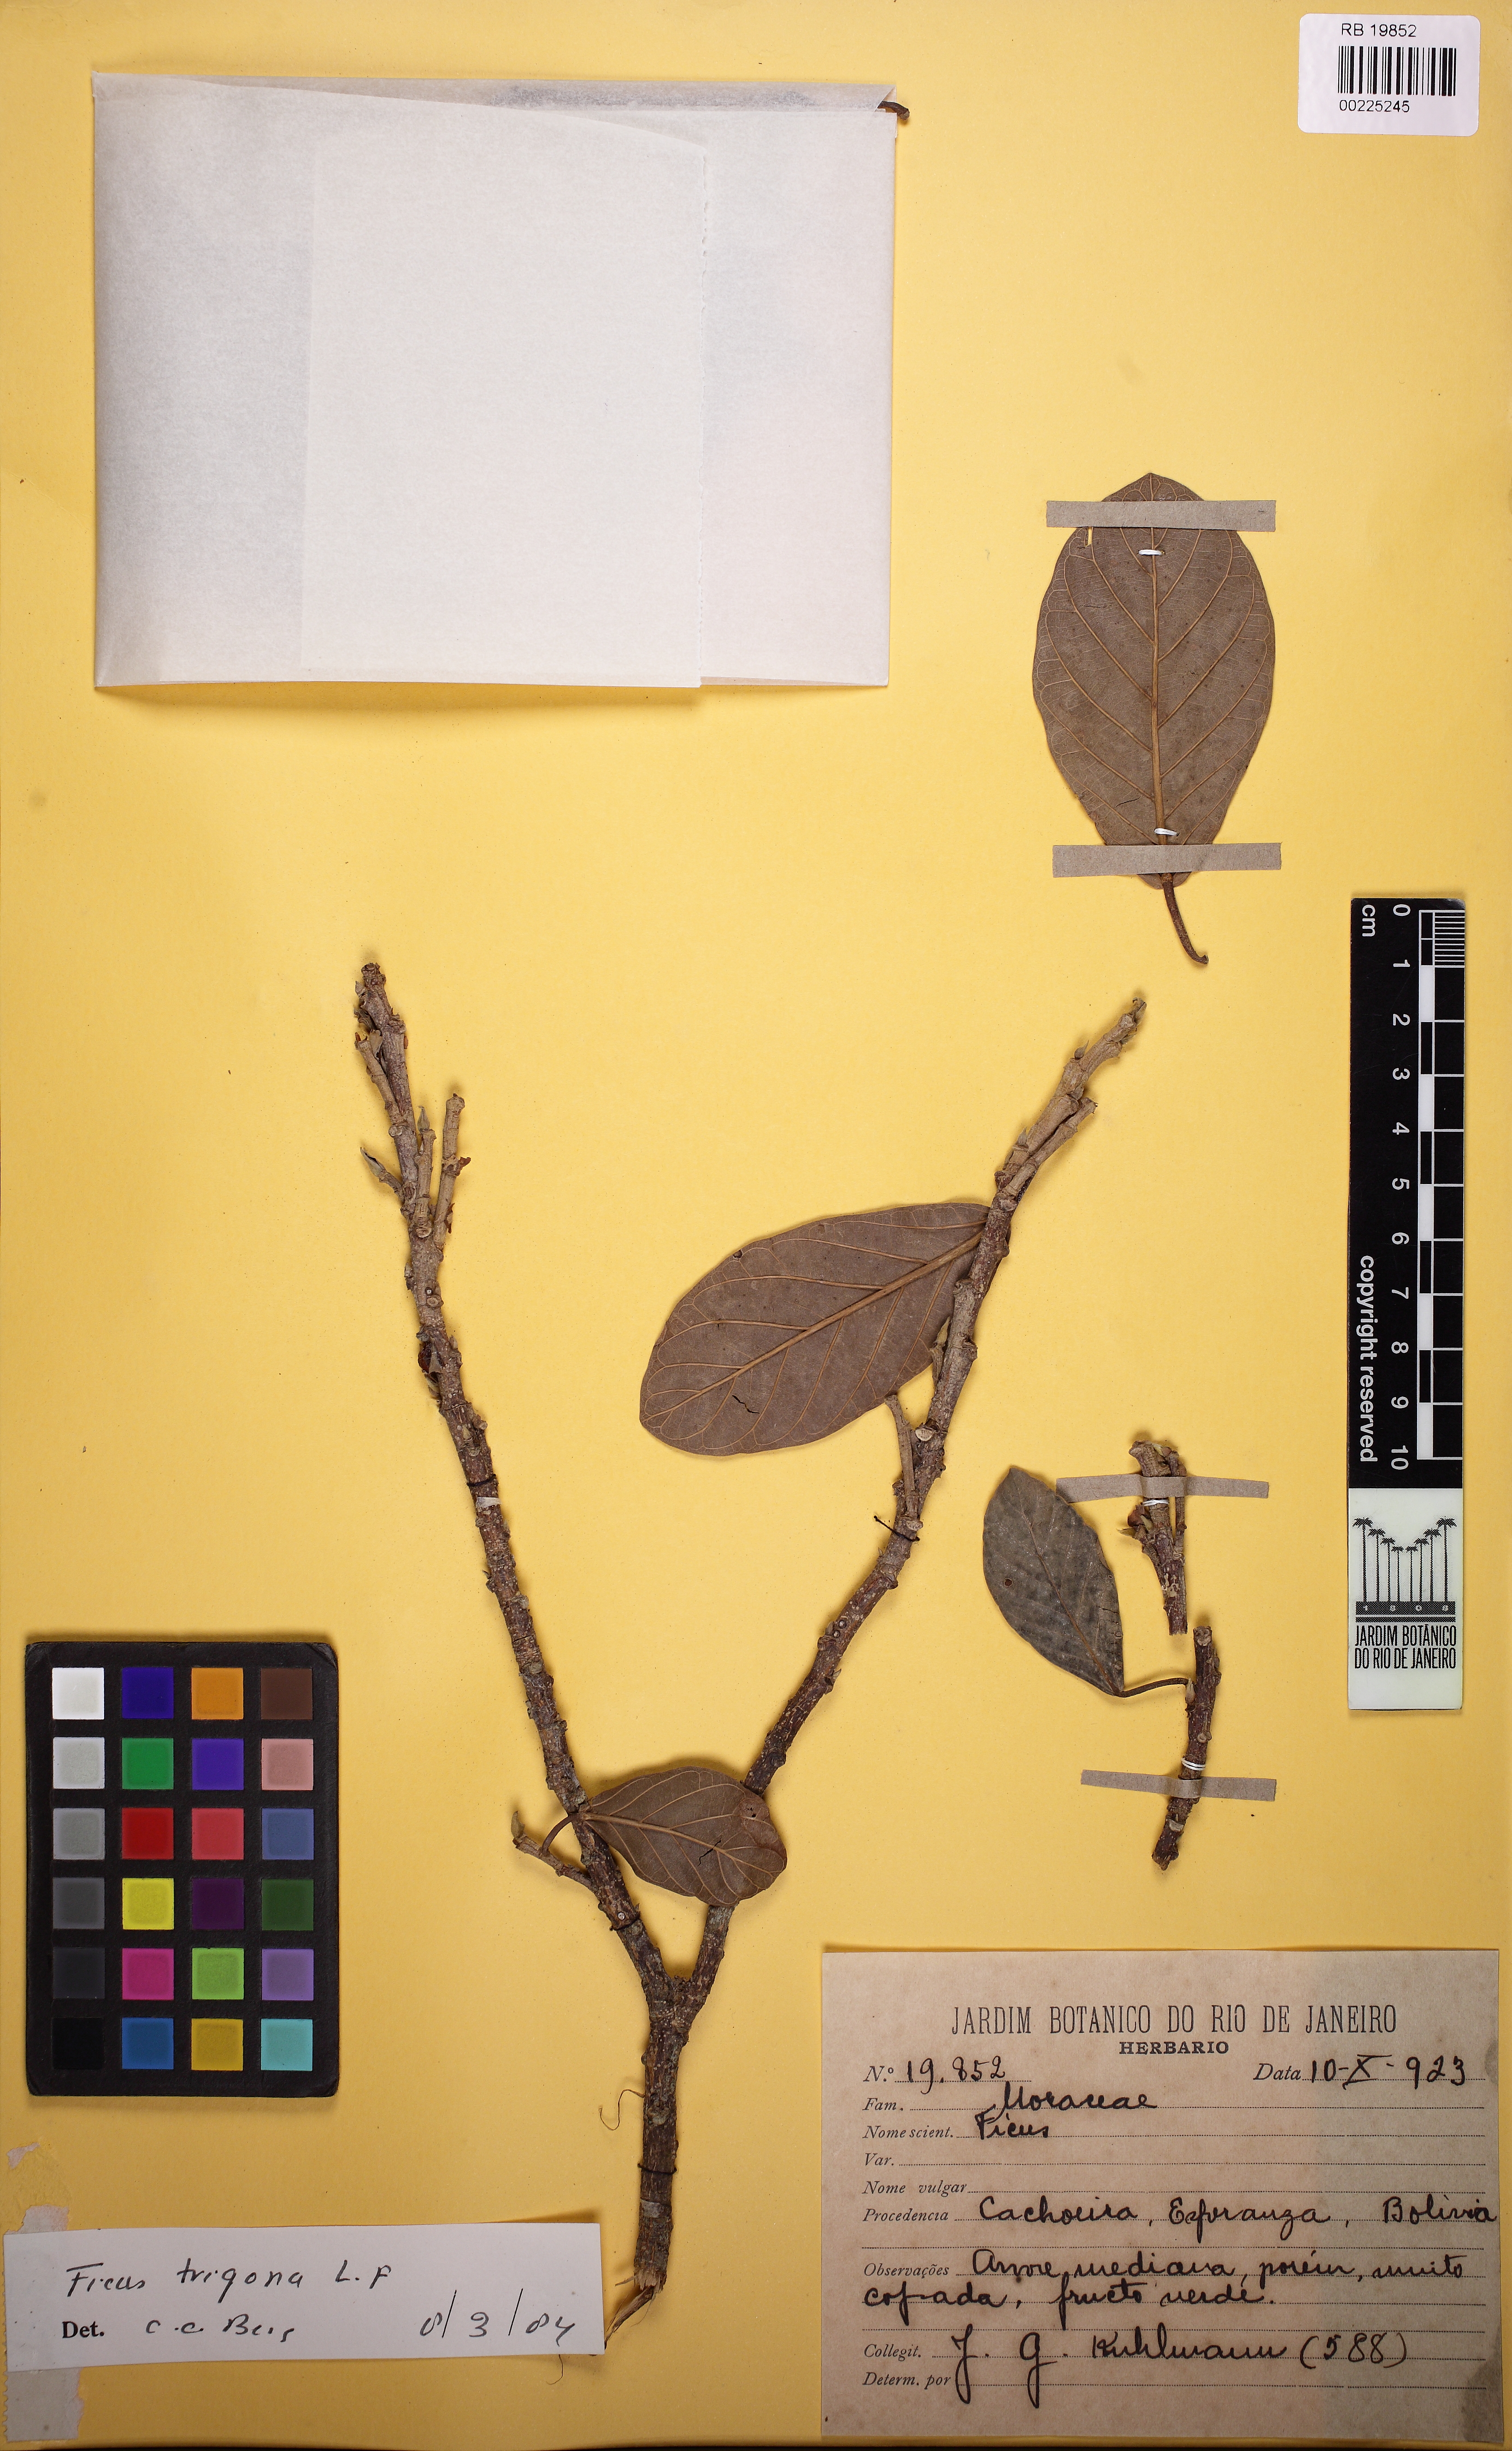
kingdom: Plantae
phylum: Tracheophyta
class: Magnoliopsida
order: Rosales
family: Moraceae
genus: Ficus
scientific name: Ficus trigona
